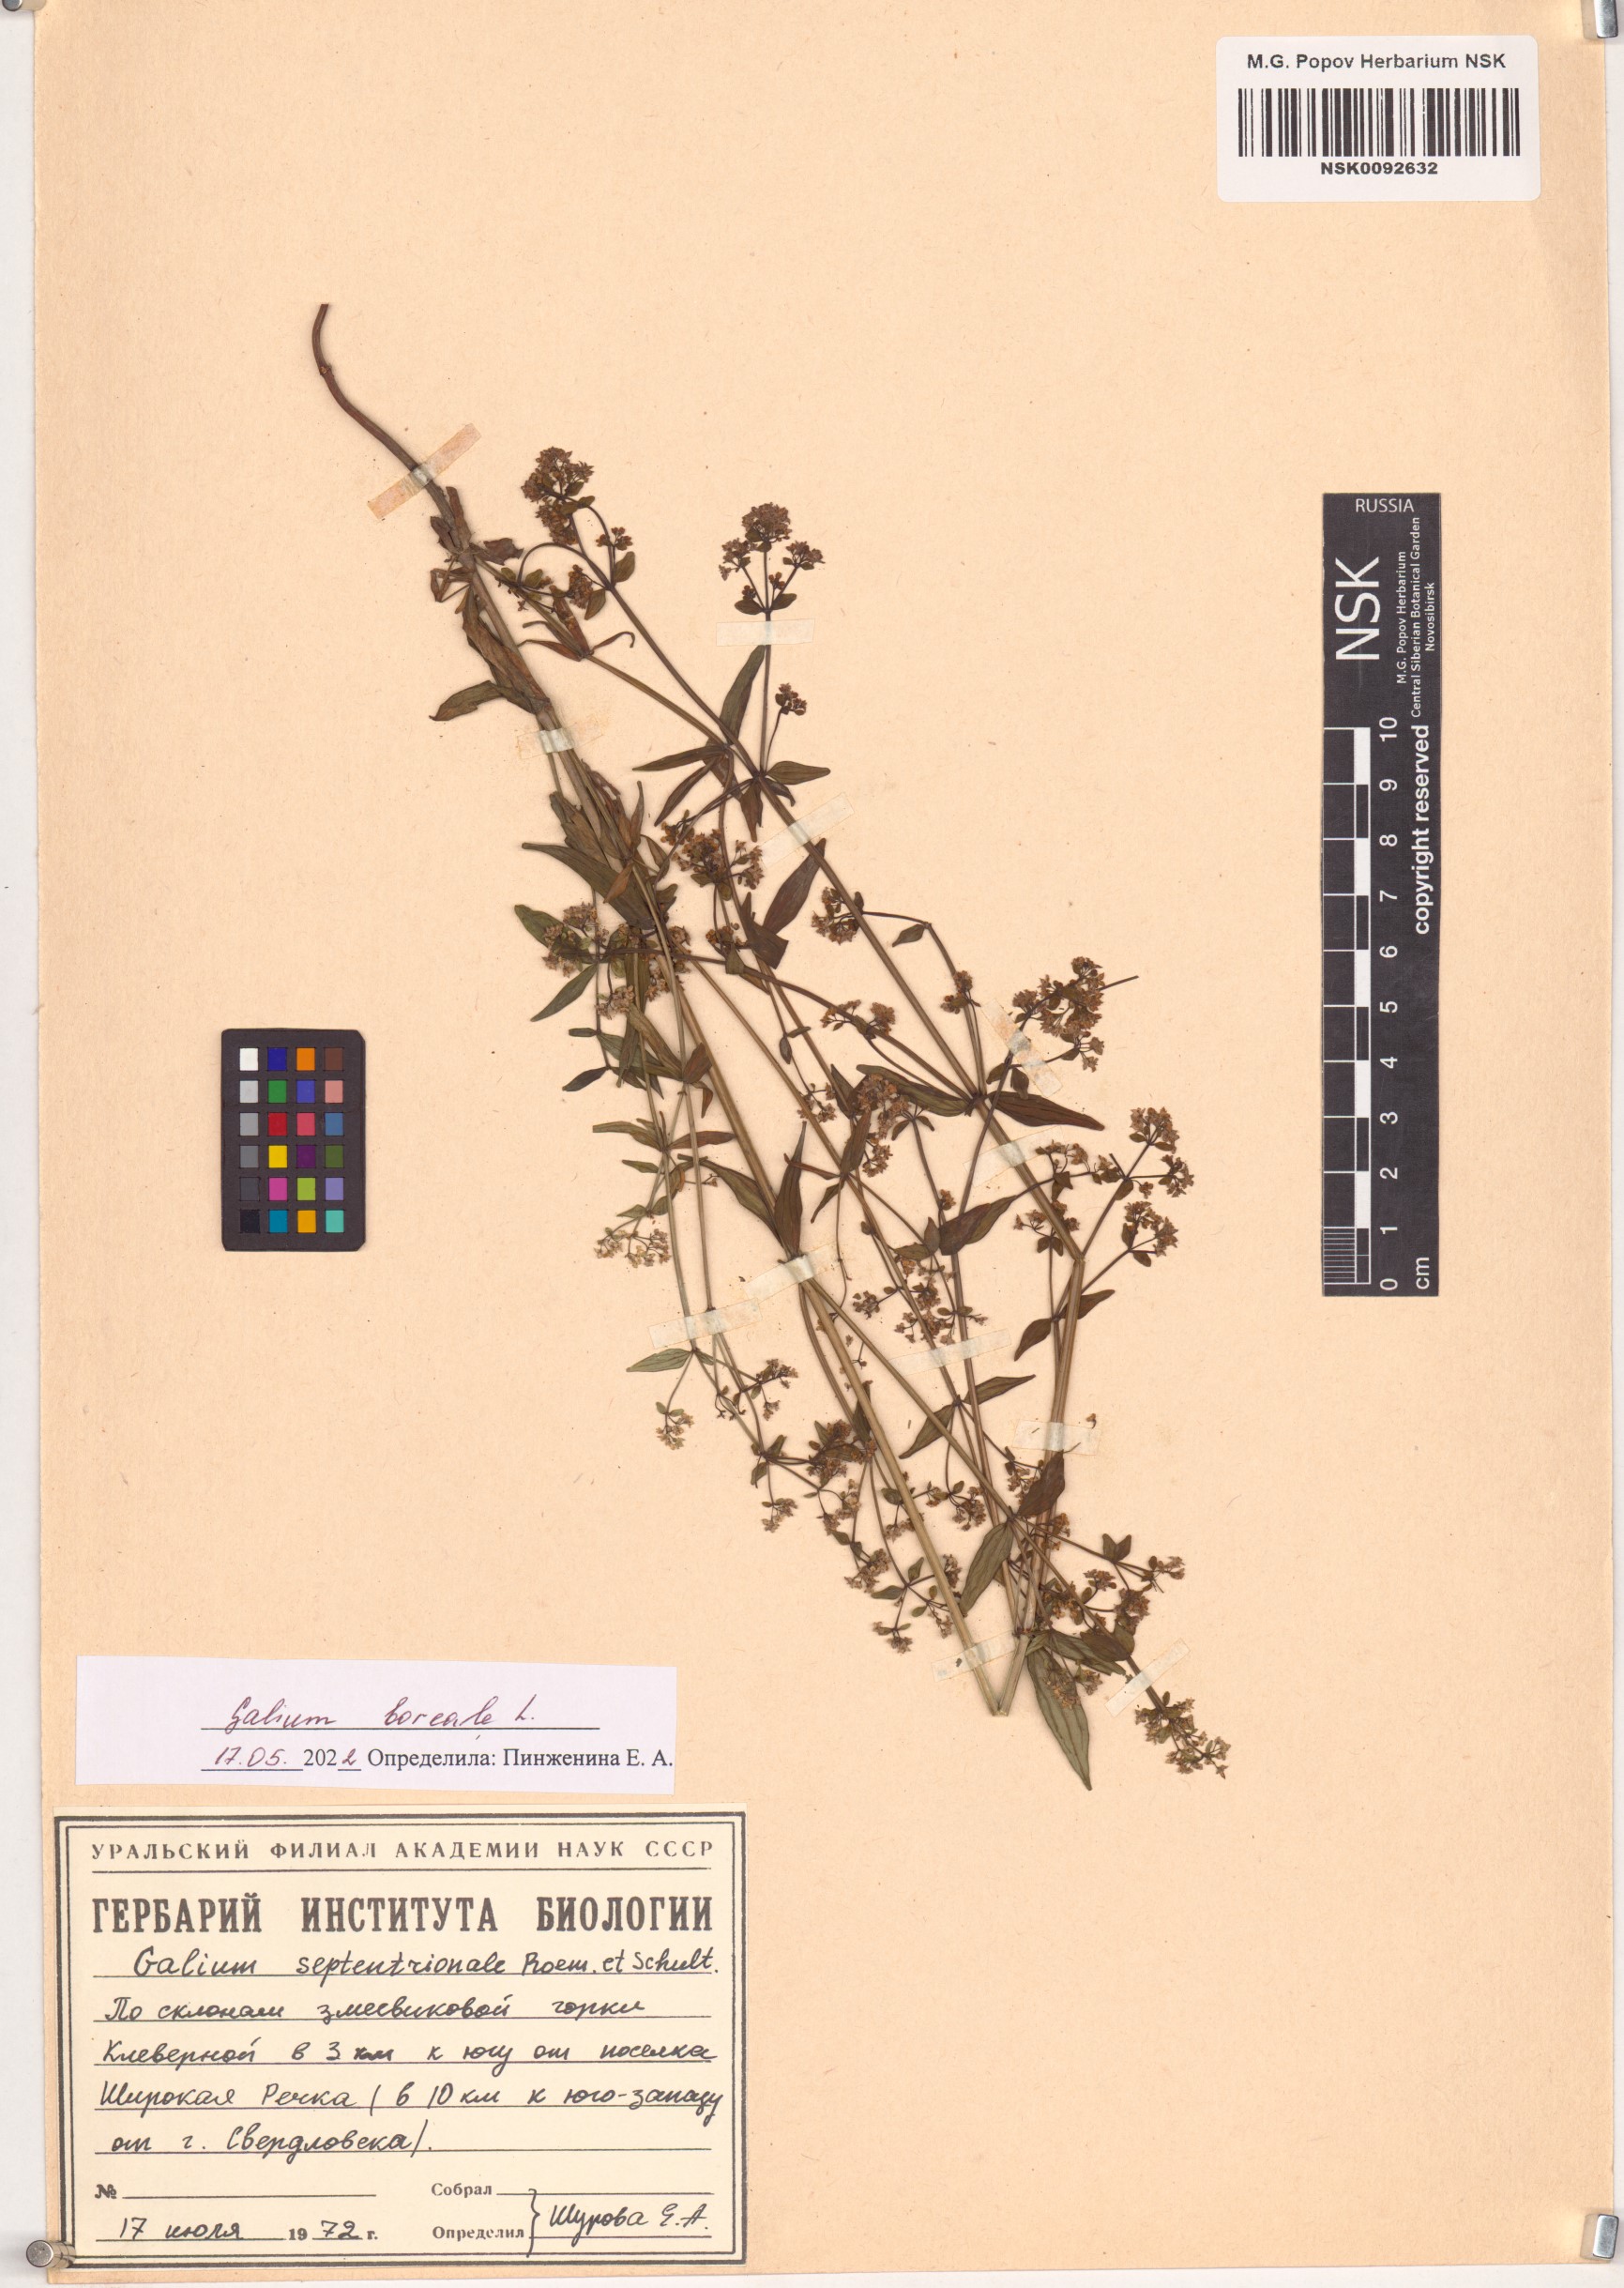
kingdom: Plantae
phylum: Tracheophyta
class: Magnoliopsida
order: Gentianales
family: Rubiaceae
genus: Galium
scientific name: Galium boreale
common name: Northern bedstraw
